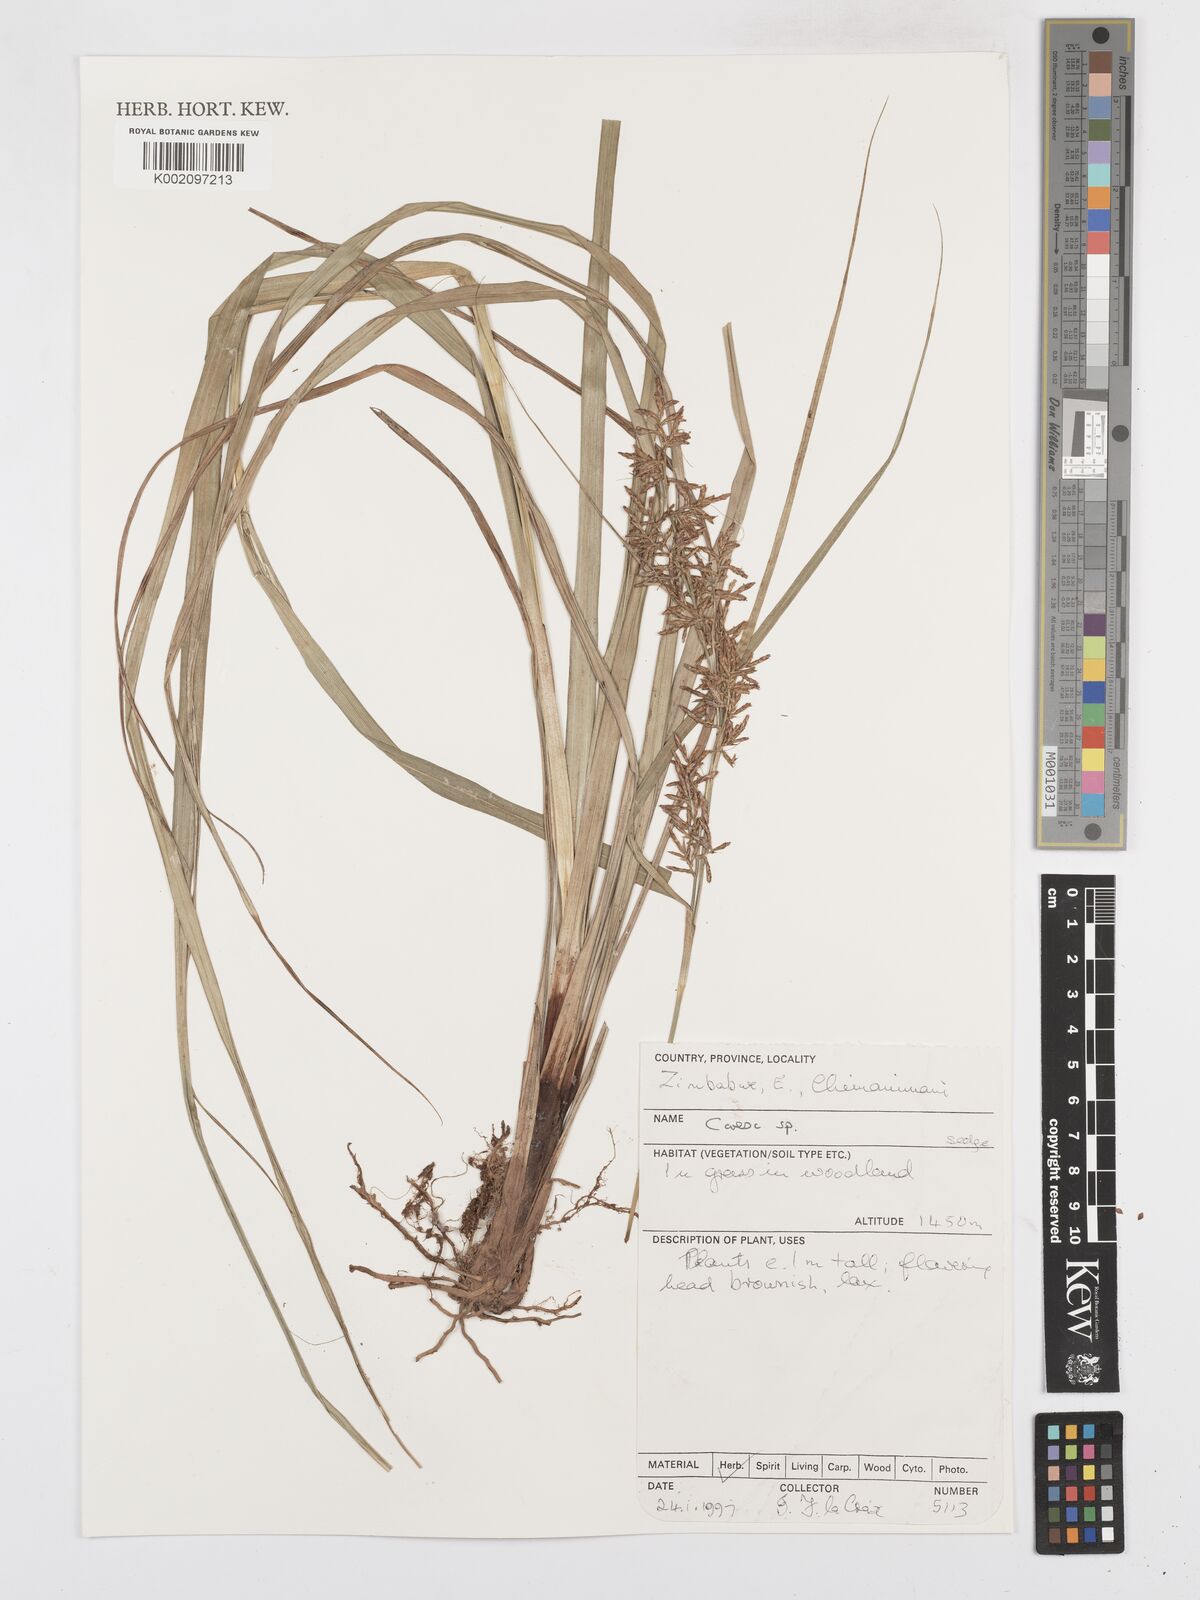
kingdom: Plantae
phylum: Tracheophyta
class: Liliopsida
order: Poales
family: Cyperaceae
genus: Carex
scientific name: Carex
